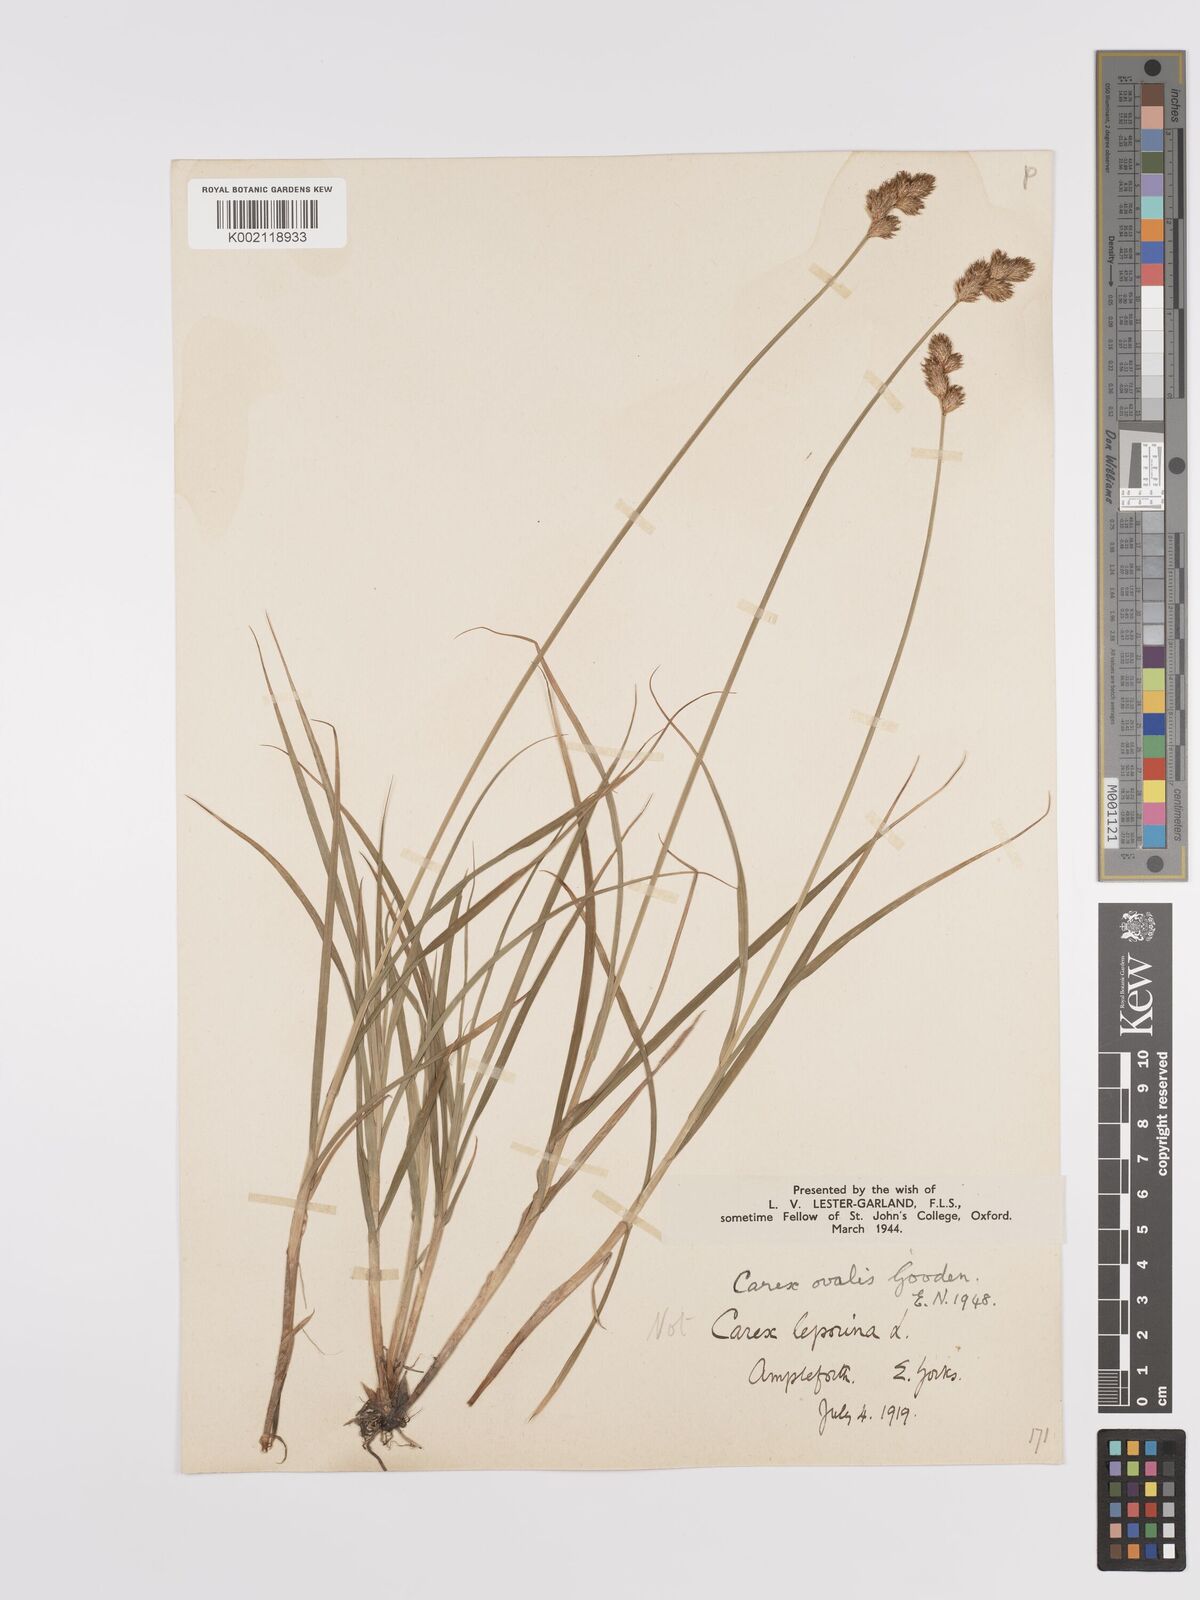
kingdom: Plantae
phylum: Tracheophyta
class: Liliopsida
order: Poales
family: Cyperaceae
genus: Carex
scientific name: Carex leporina
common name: Oval sedge
